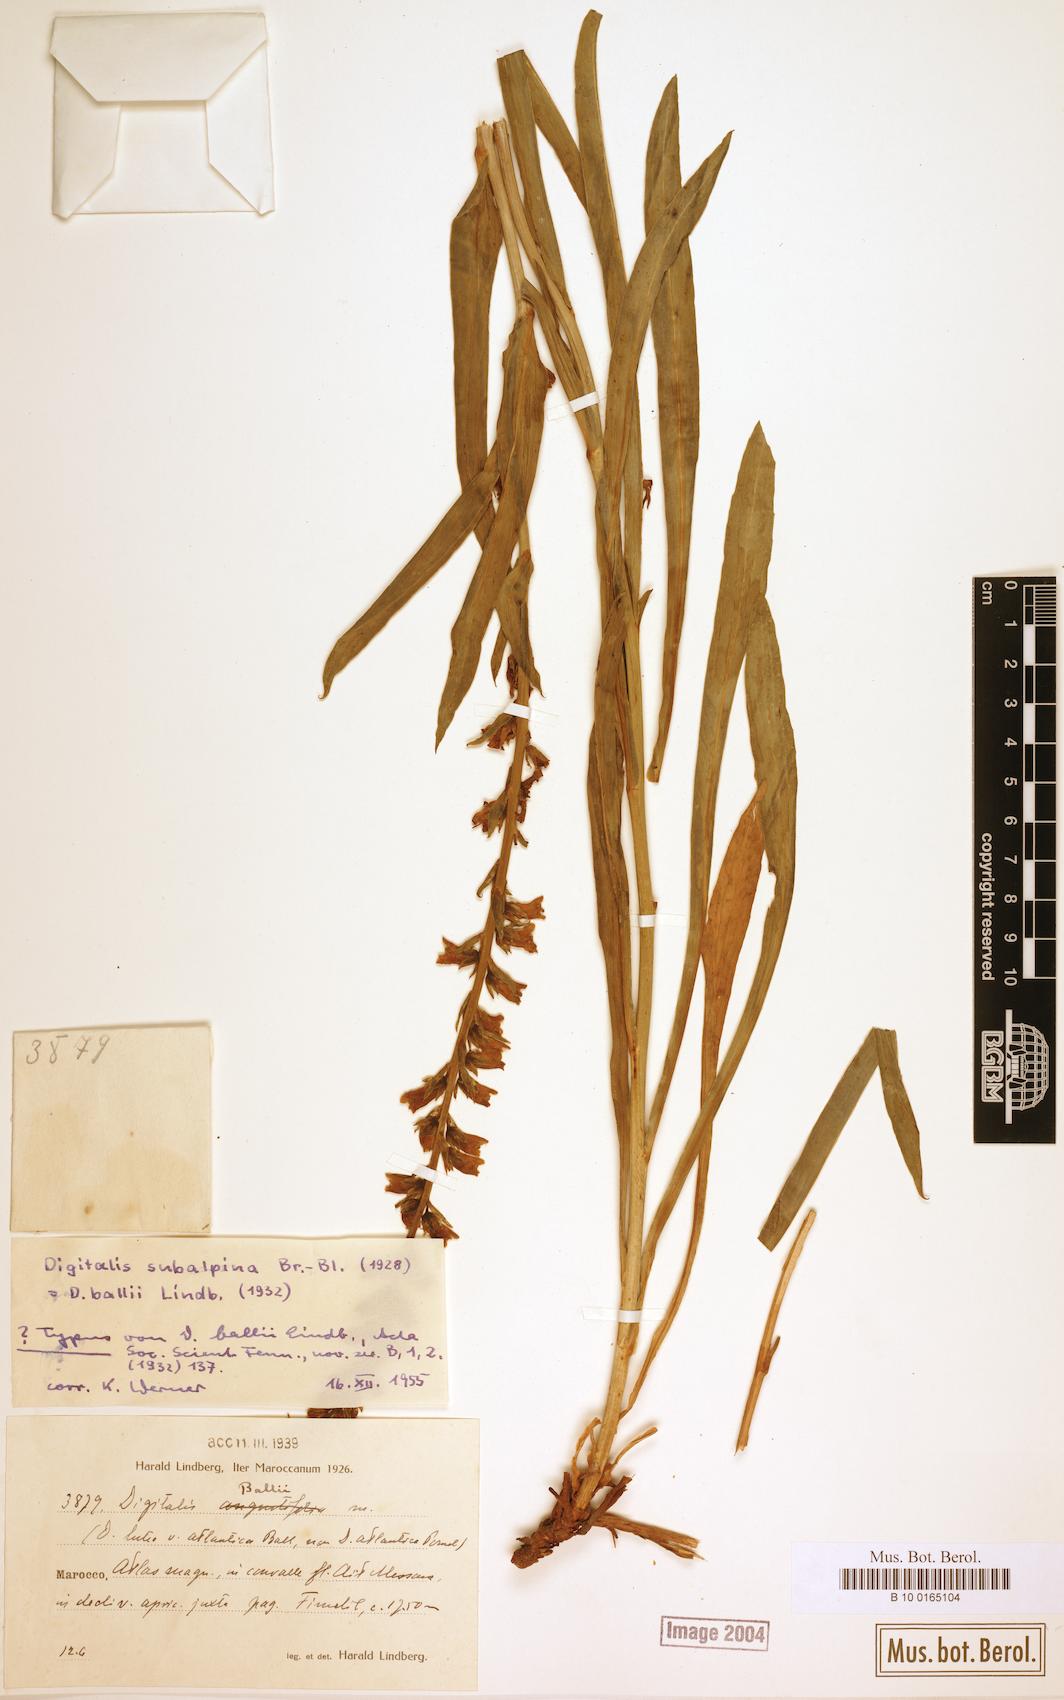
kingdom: Plantae
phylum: Tracheophyta
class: Magnoliopsida
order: Lamiales
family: Plantaginaceae
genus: Digitalis
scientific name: Digitalis subalpina
